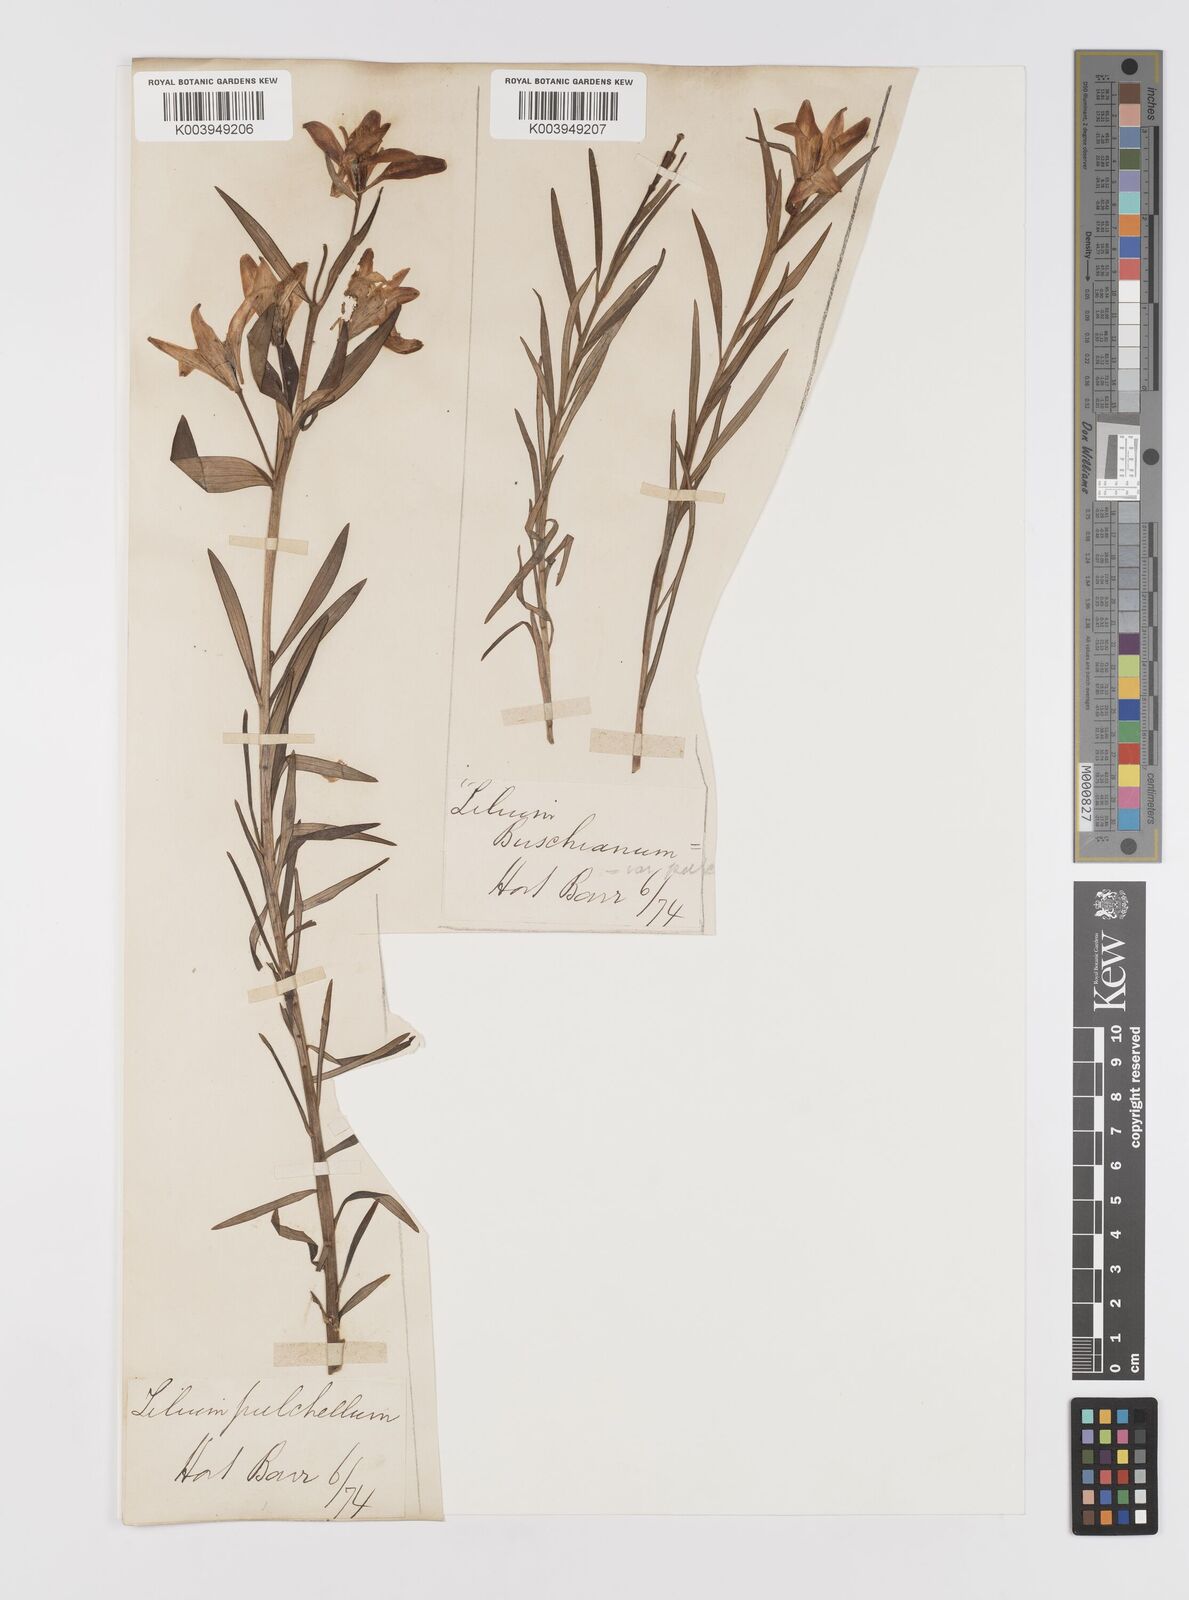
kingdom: Plantae
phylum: Tracheophyta
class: Liliopsida
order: Liliales
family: Liliaceae
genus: Lilium
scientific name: Lilium concolor
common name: Morning-star lily
